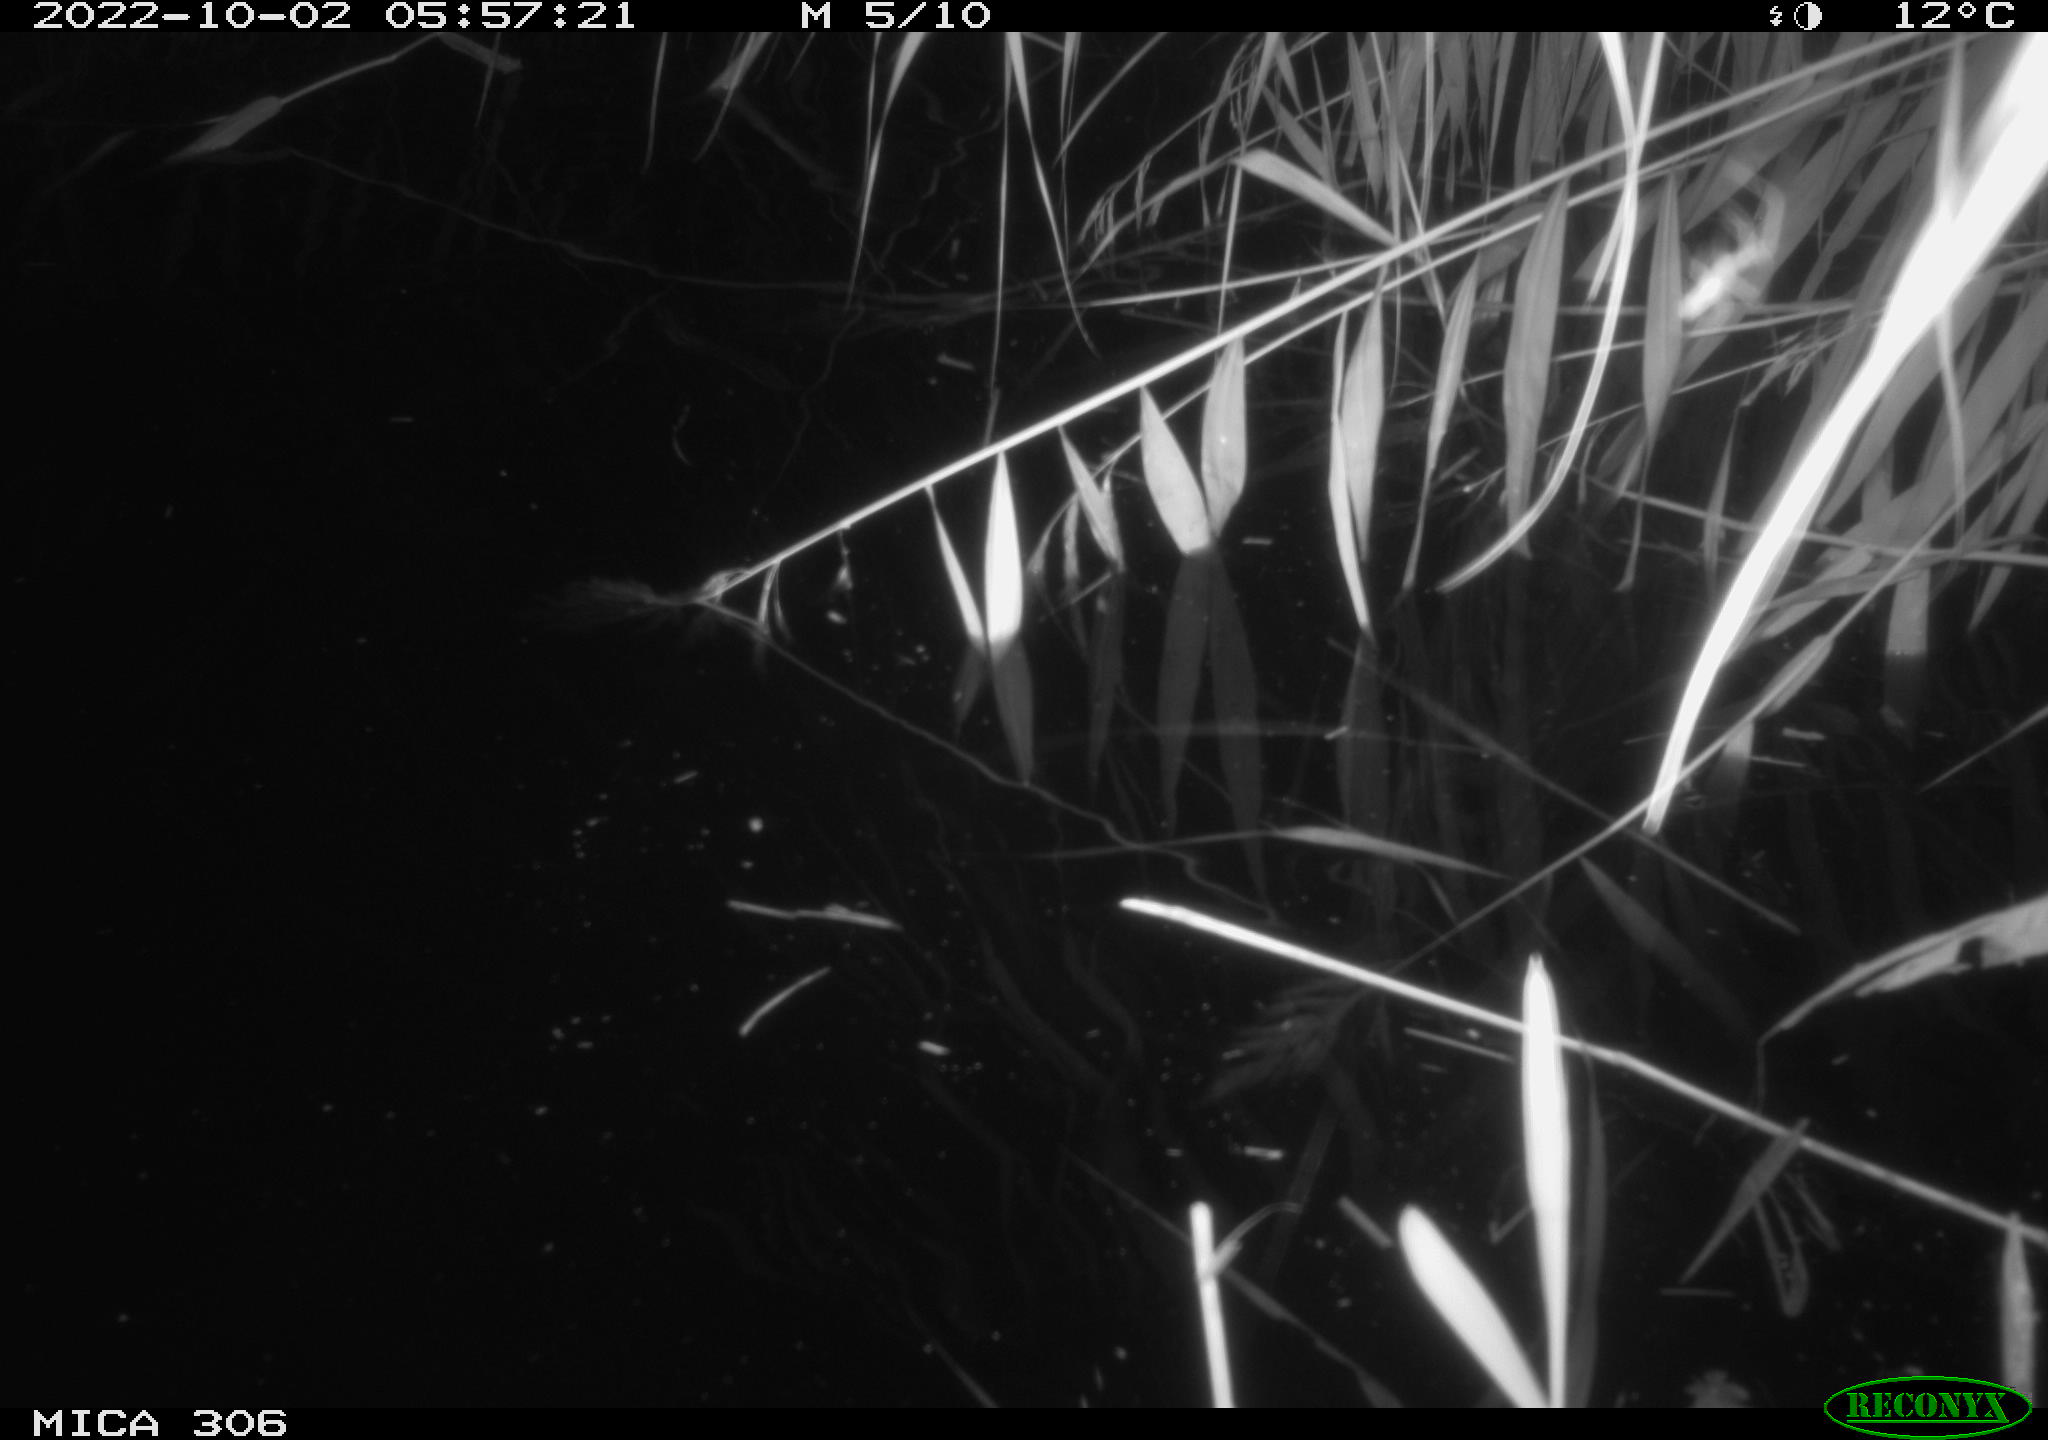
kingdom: Animalia
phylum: Chordata
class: Mammalia
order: Rodentia
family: Muridae
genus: Rattus
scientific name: Rattus norvegicus
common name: Brown rat
